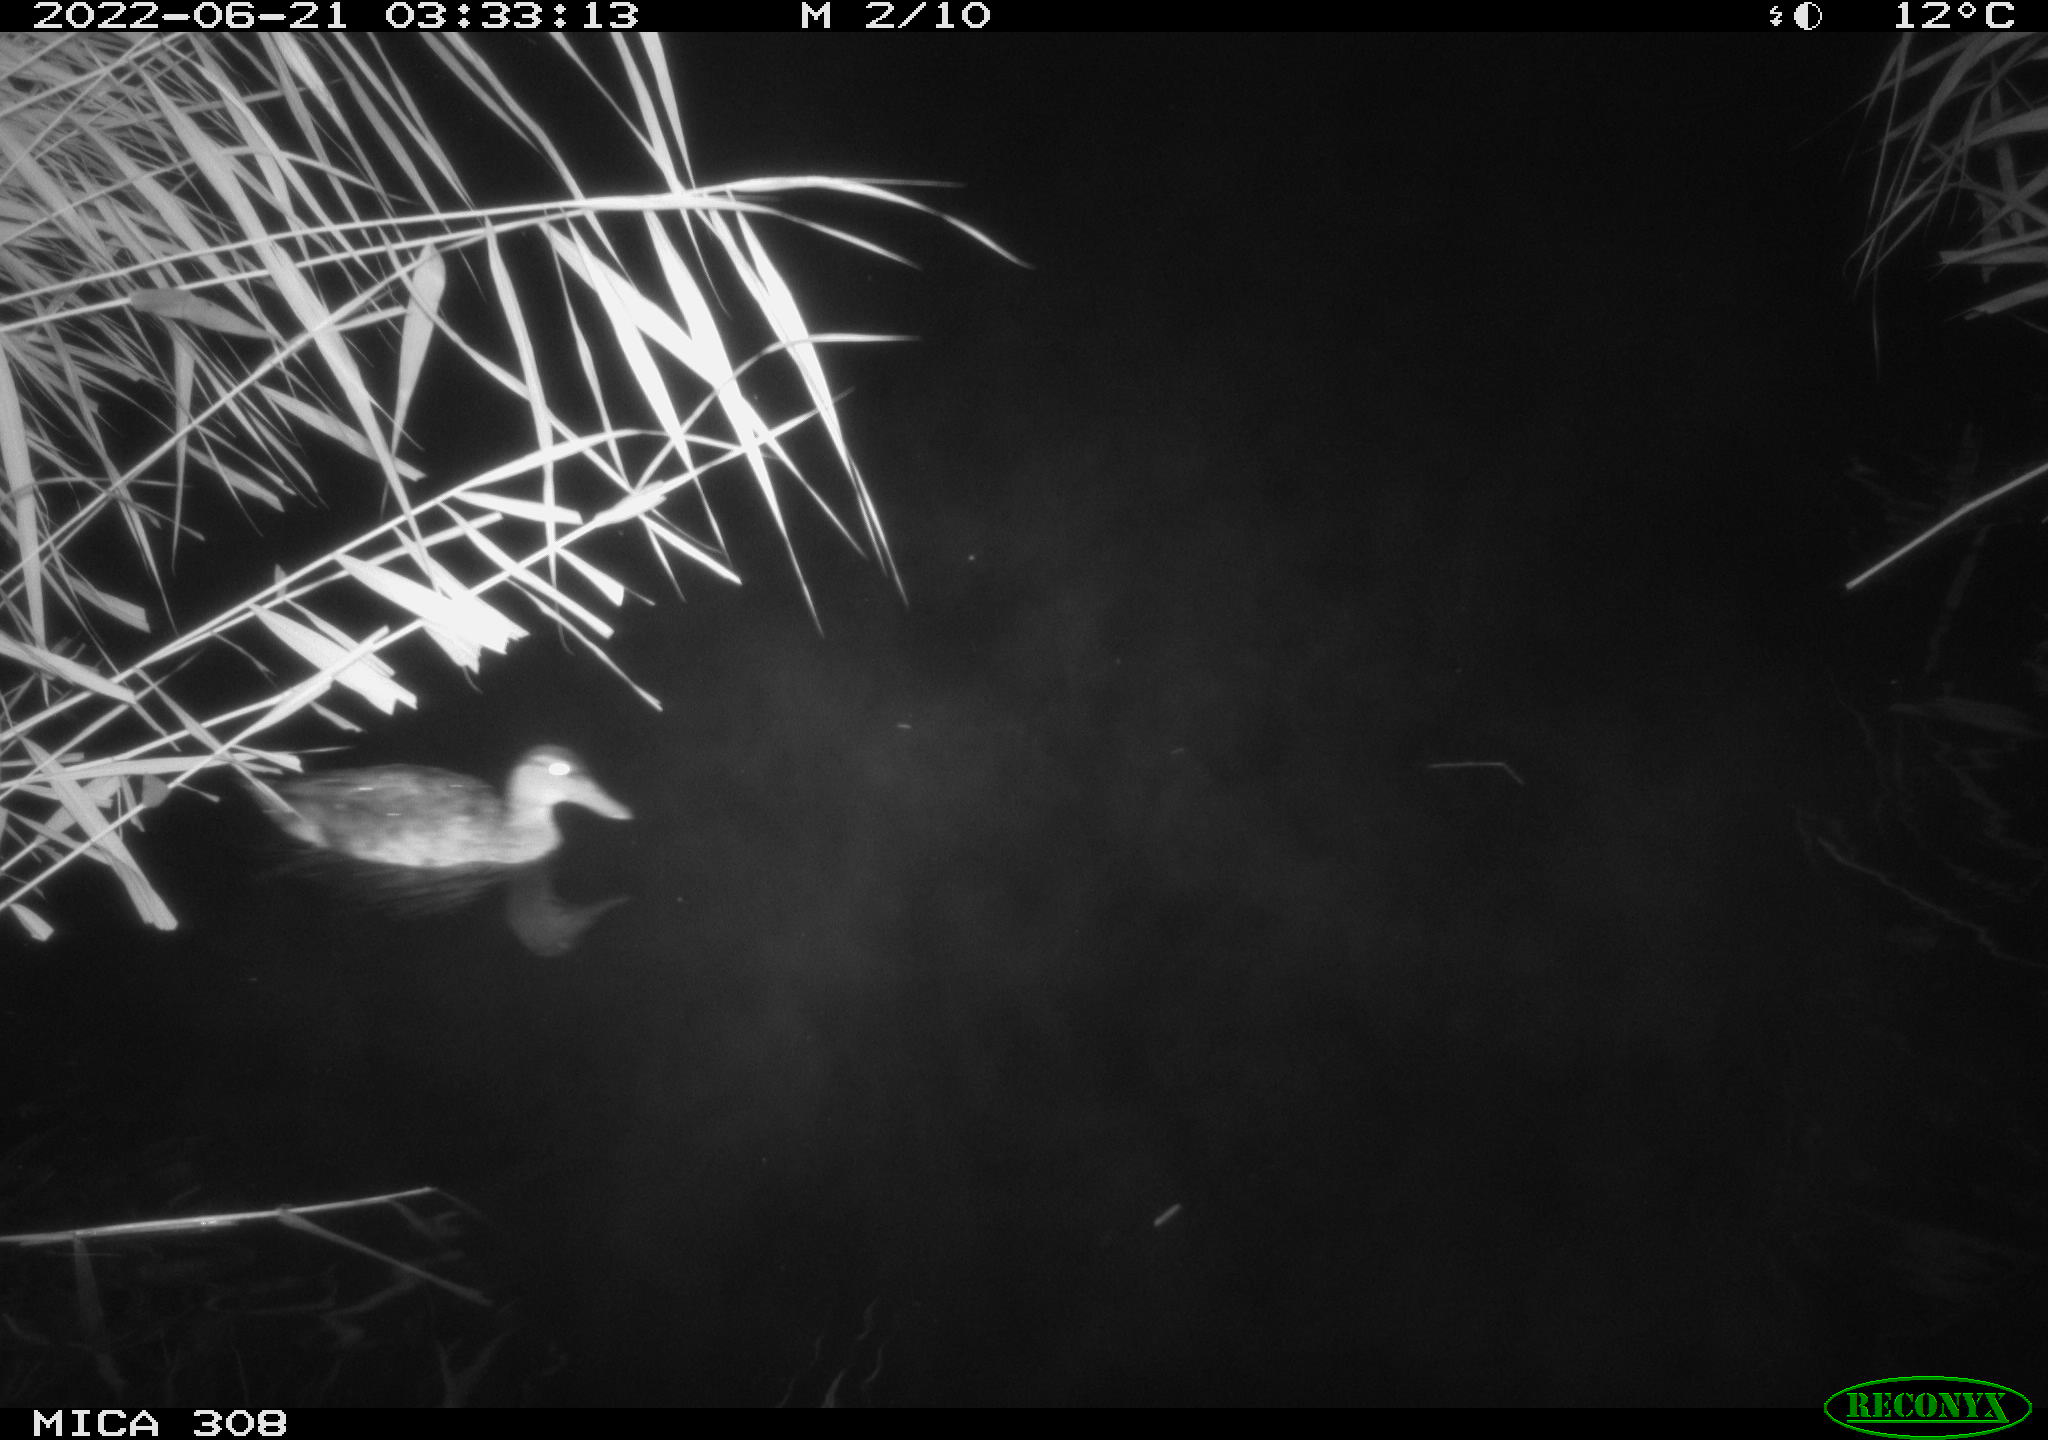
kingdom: Animalia
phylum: Chordata
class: Aves
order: Anseriformes
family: Anatidae
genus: Anas
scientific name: Anas platyrhynchos
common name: Mallard
